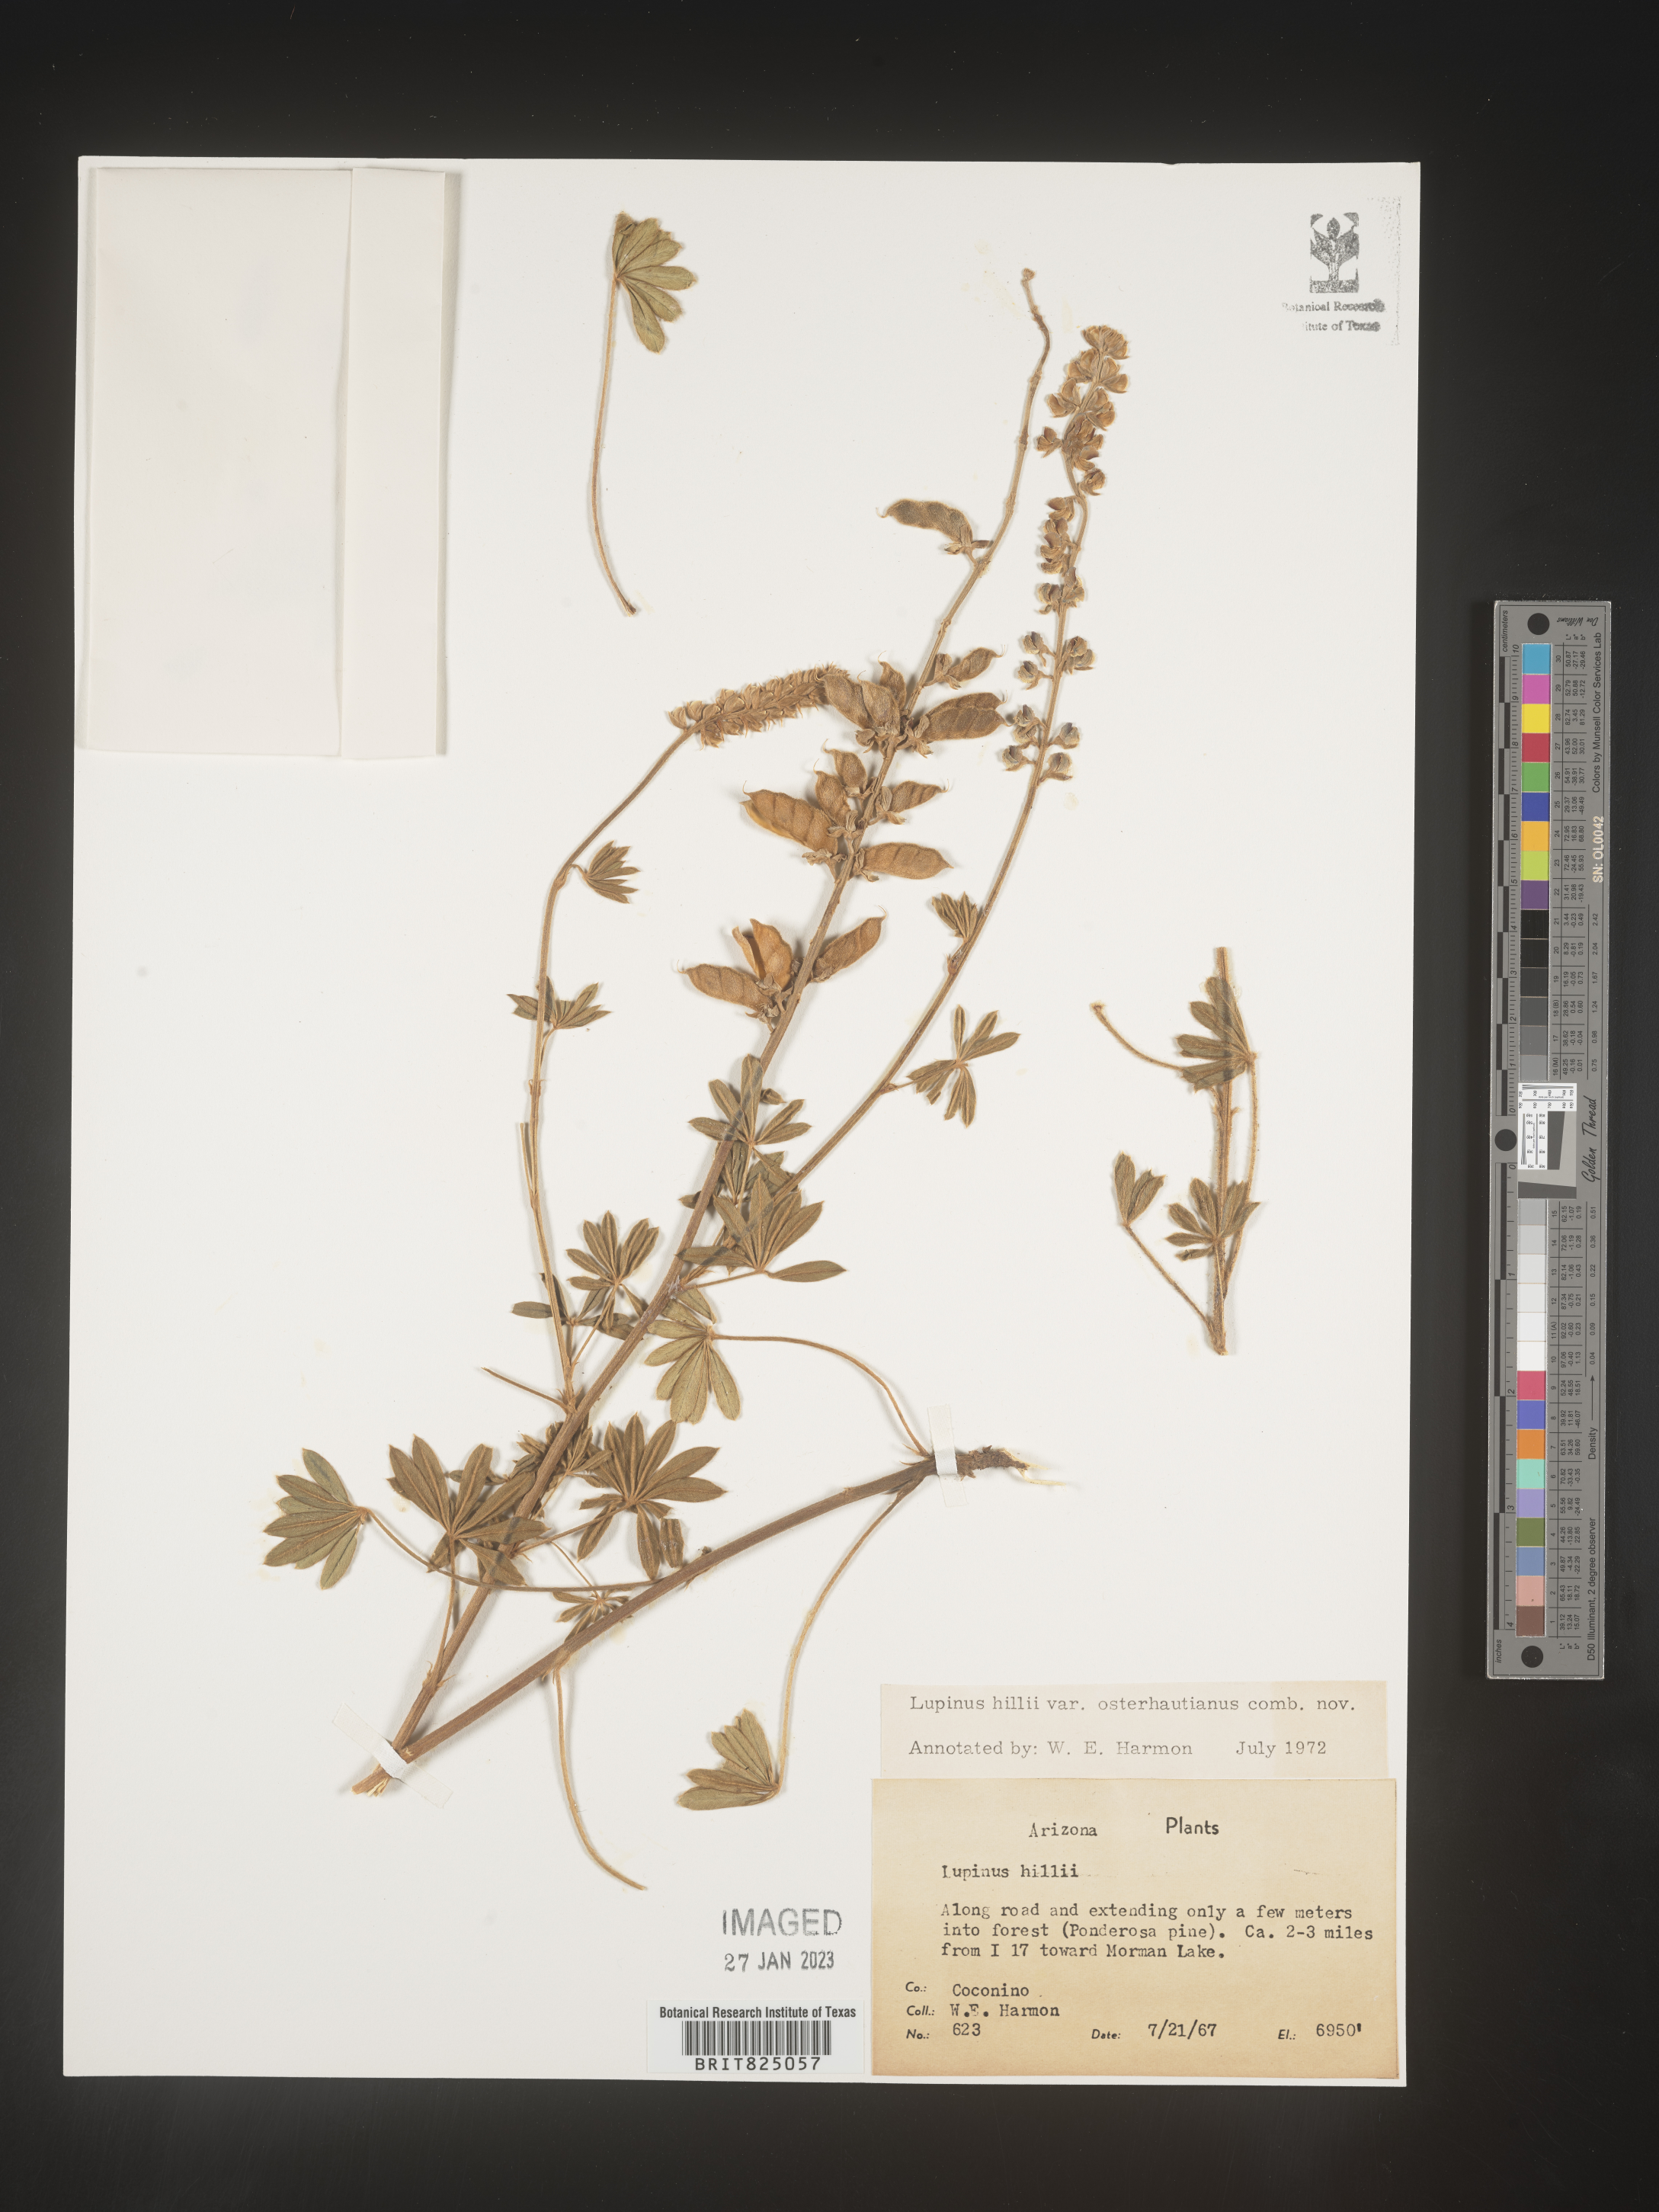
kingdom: Plantae
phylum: Tracheophyta
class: Magnoliopsida
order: Fabales
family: Fabaceae
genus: Lupinus
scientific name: Lupinus
